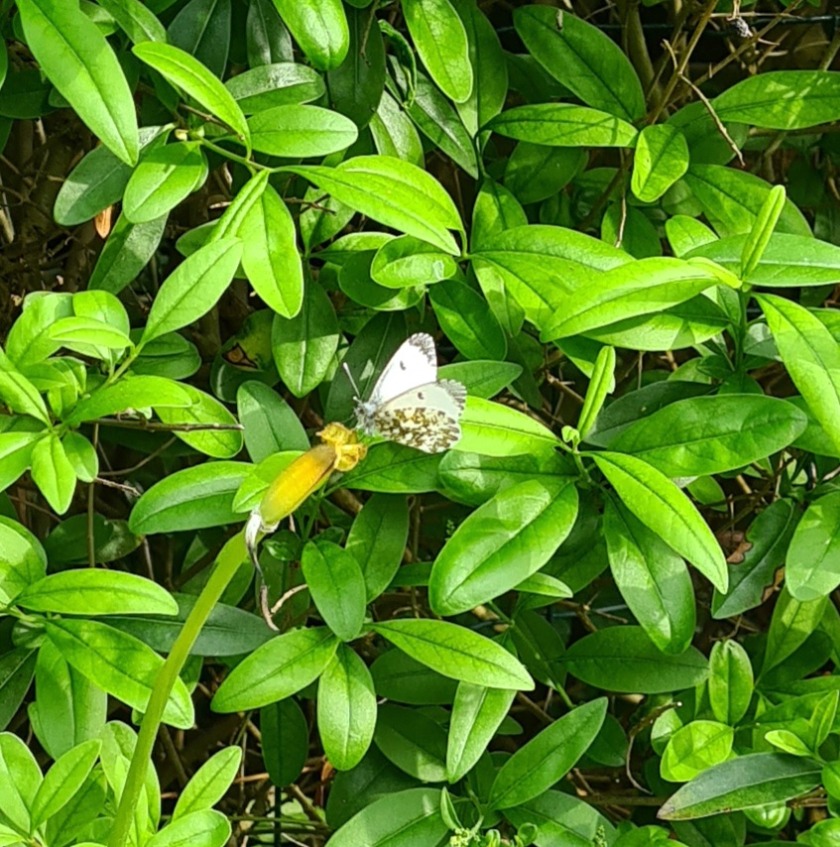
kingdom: Animalia
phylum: Arthropoda
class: Insecta
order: Lepidoptera
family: Pieridae
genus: Anthocharis
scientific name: Anthocharis cardamines
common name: Aurora
